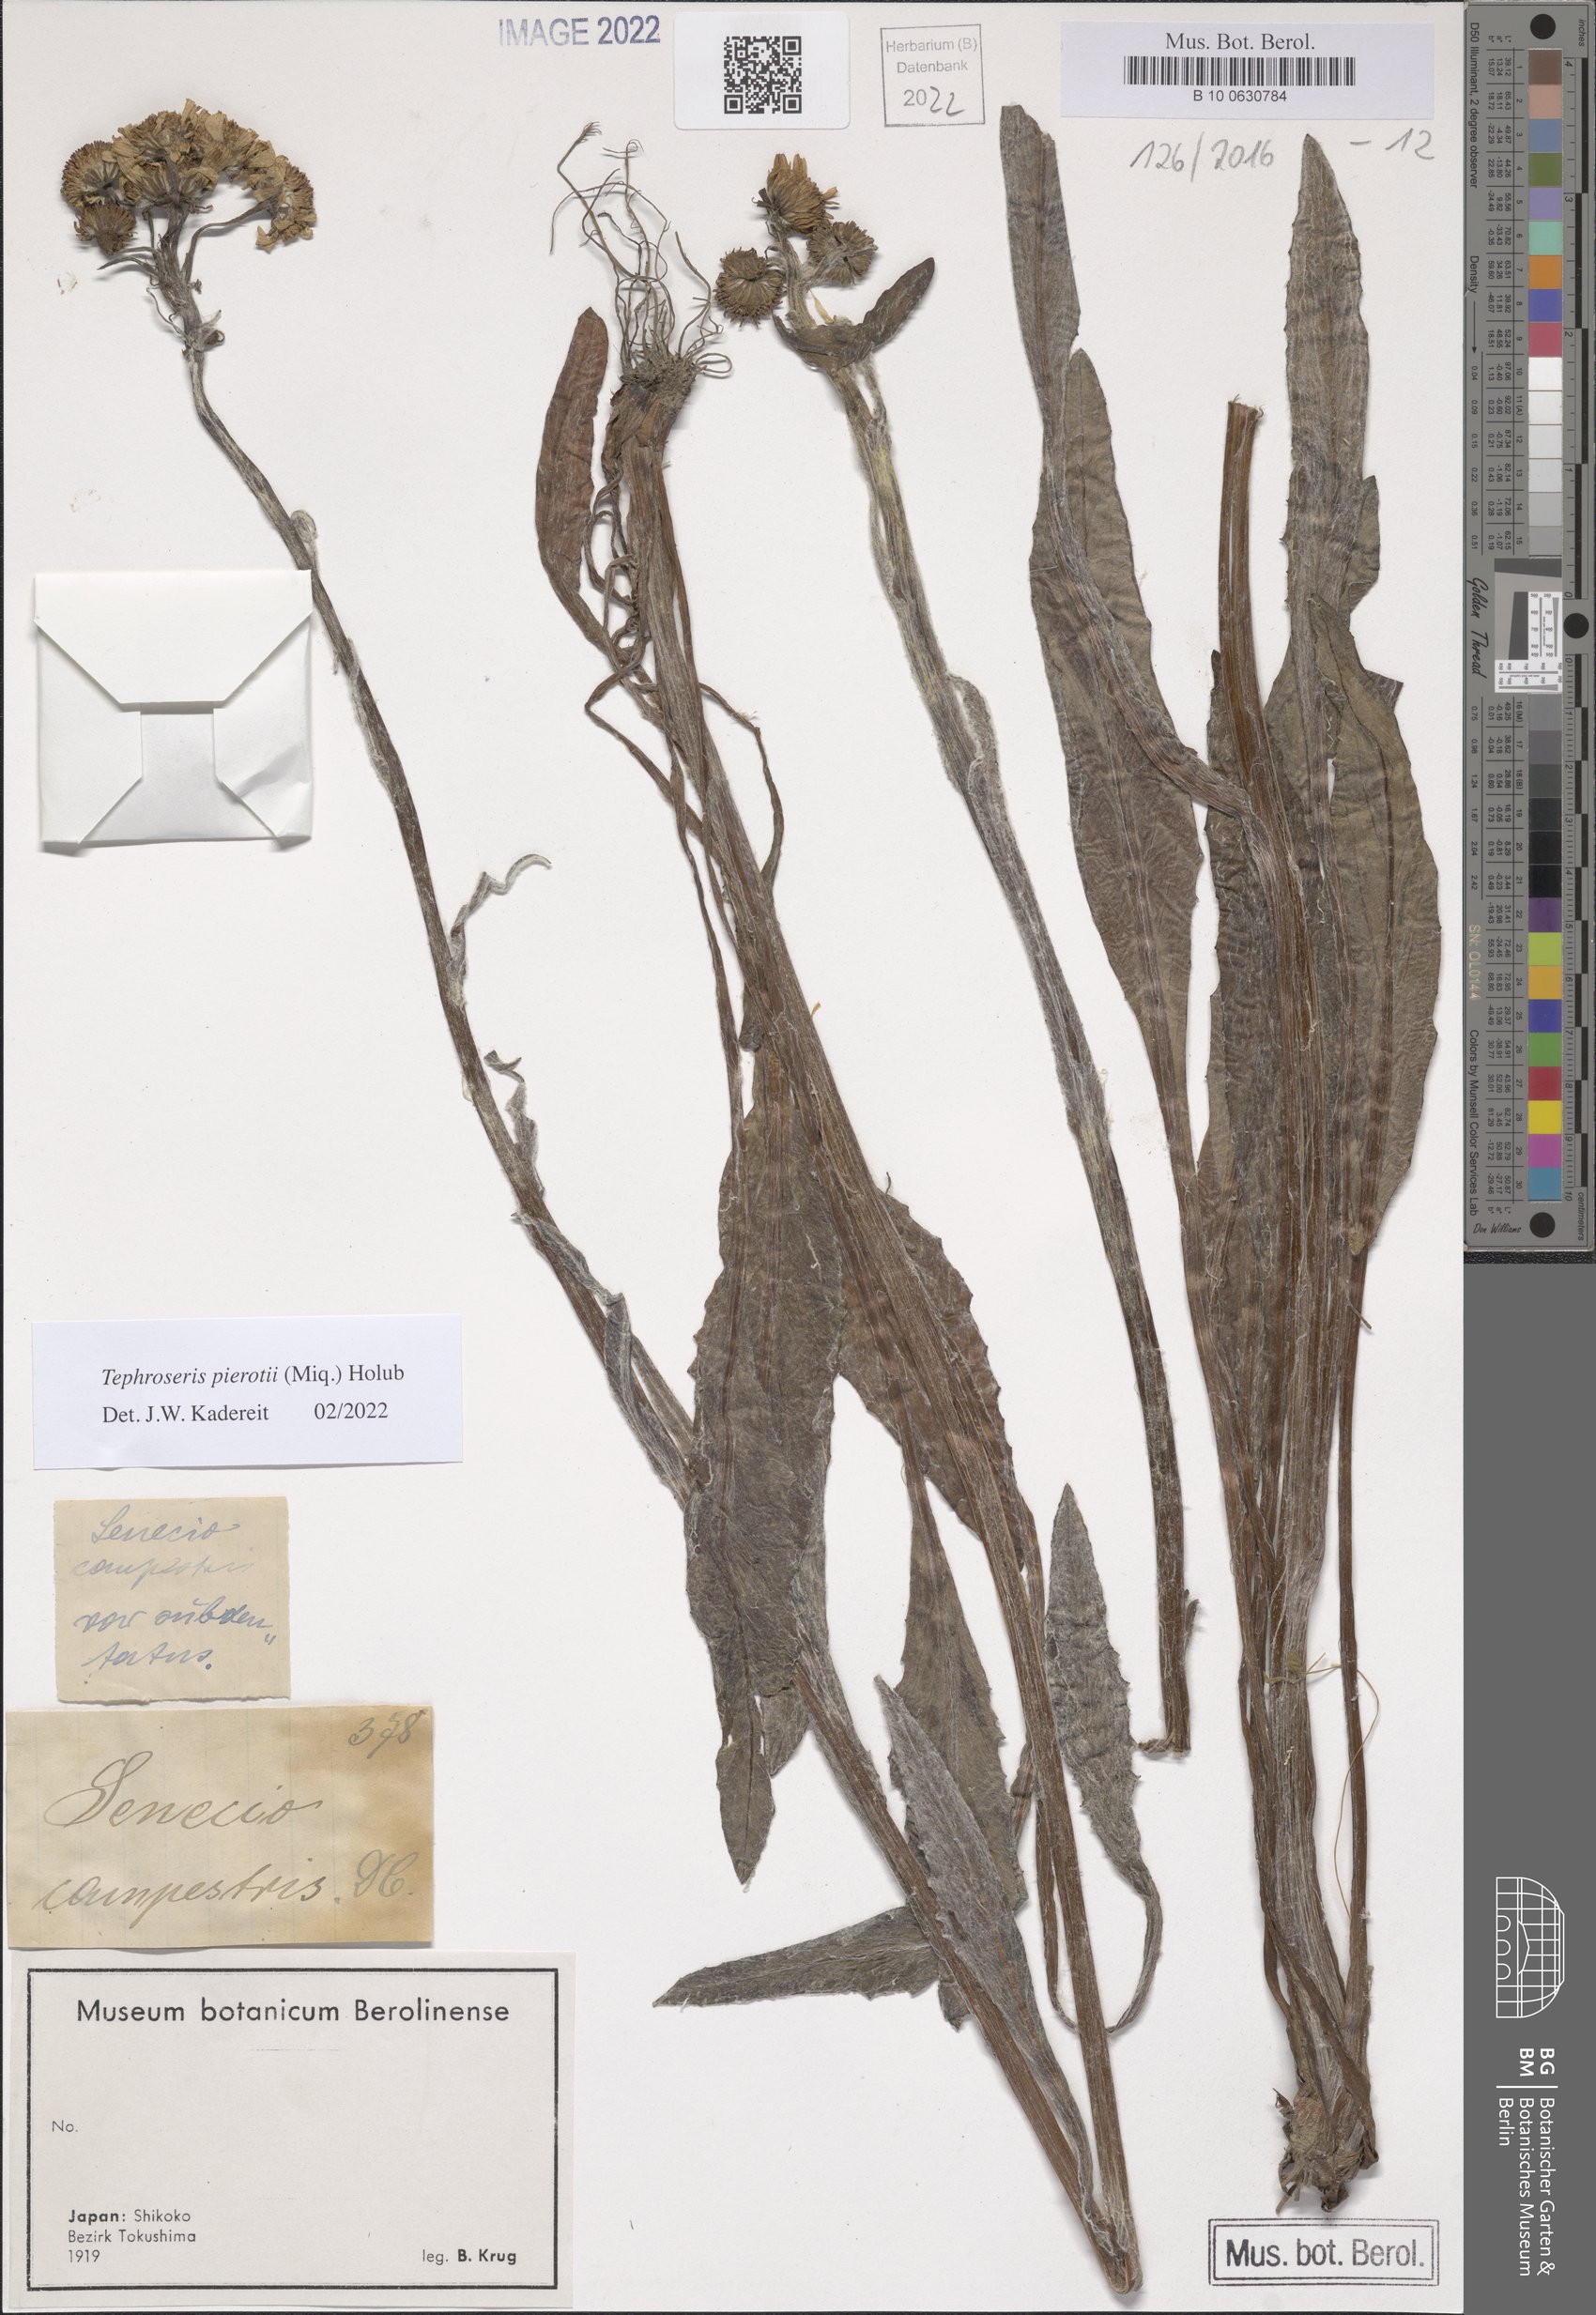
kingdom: Plantae
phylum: Tracheophyta
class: Magnoliopsida
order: Asterales
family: Asteraceae
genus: Tephroseris
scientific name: Tephroseris pierotii
